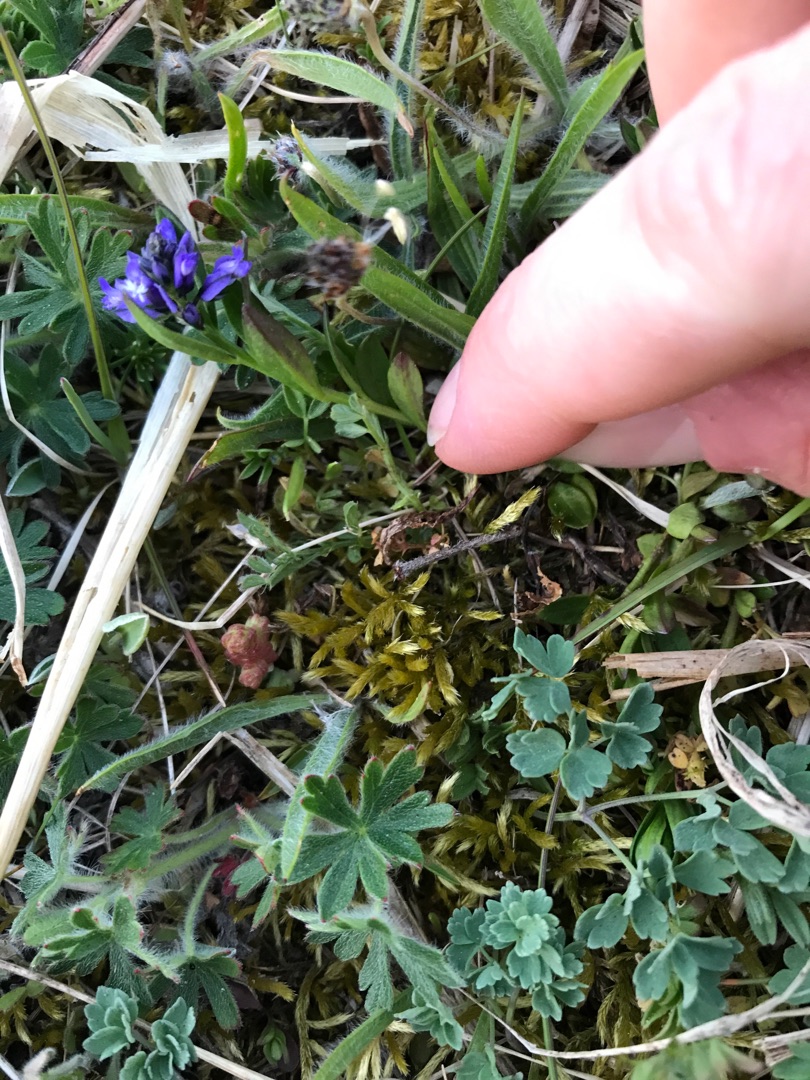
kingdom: Plantae
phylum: Tracheophyta
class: Magnoliopsida
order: Fabales
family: Polygalaceae
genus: Polygala
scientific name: Polygala vulgaris
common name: Almindelig mælkeurt
